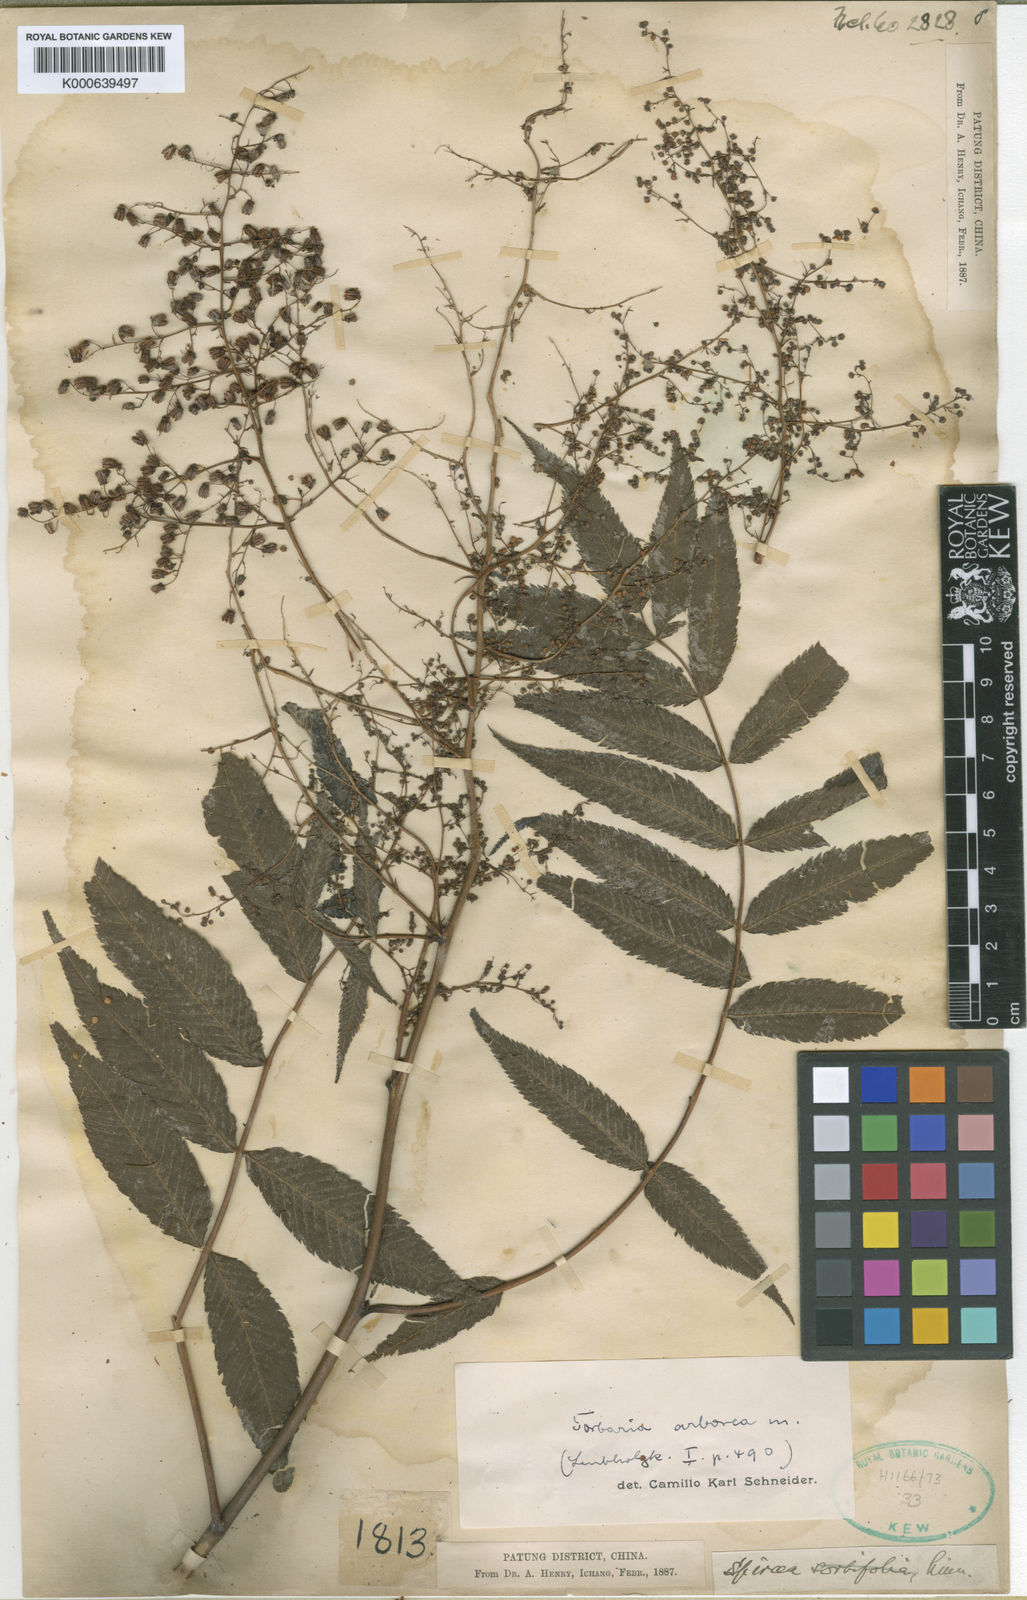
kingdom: Plantae
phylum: Tracheophyta
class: Magnoliopsida
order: Rosales
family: Rosaceae
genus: Sorbaria
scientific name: Sorbaria kirilowii
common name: Chinese sorbaria
